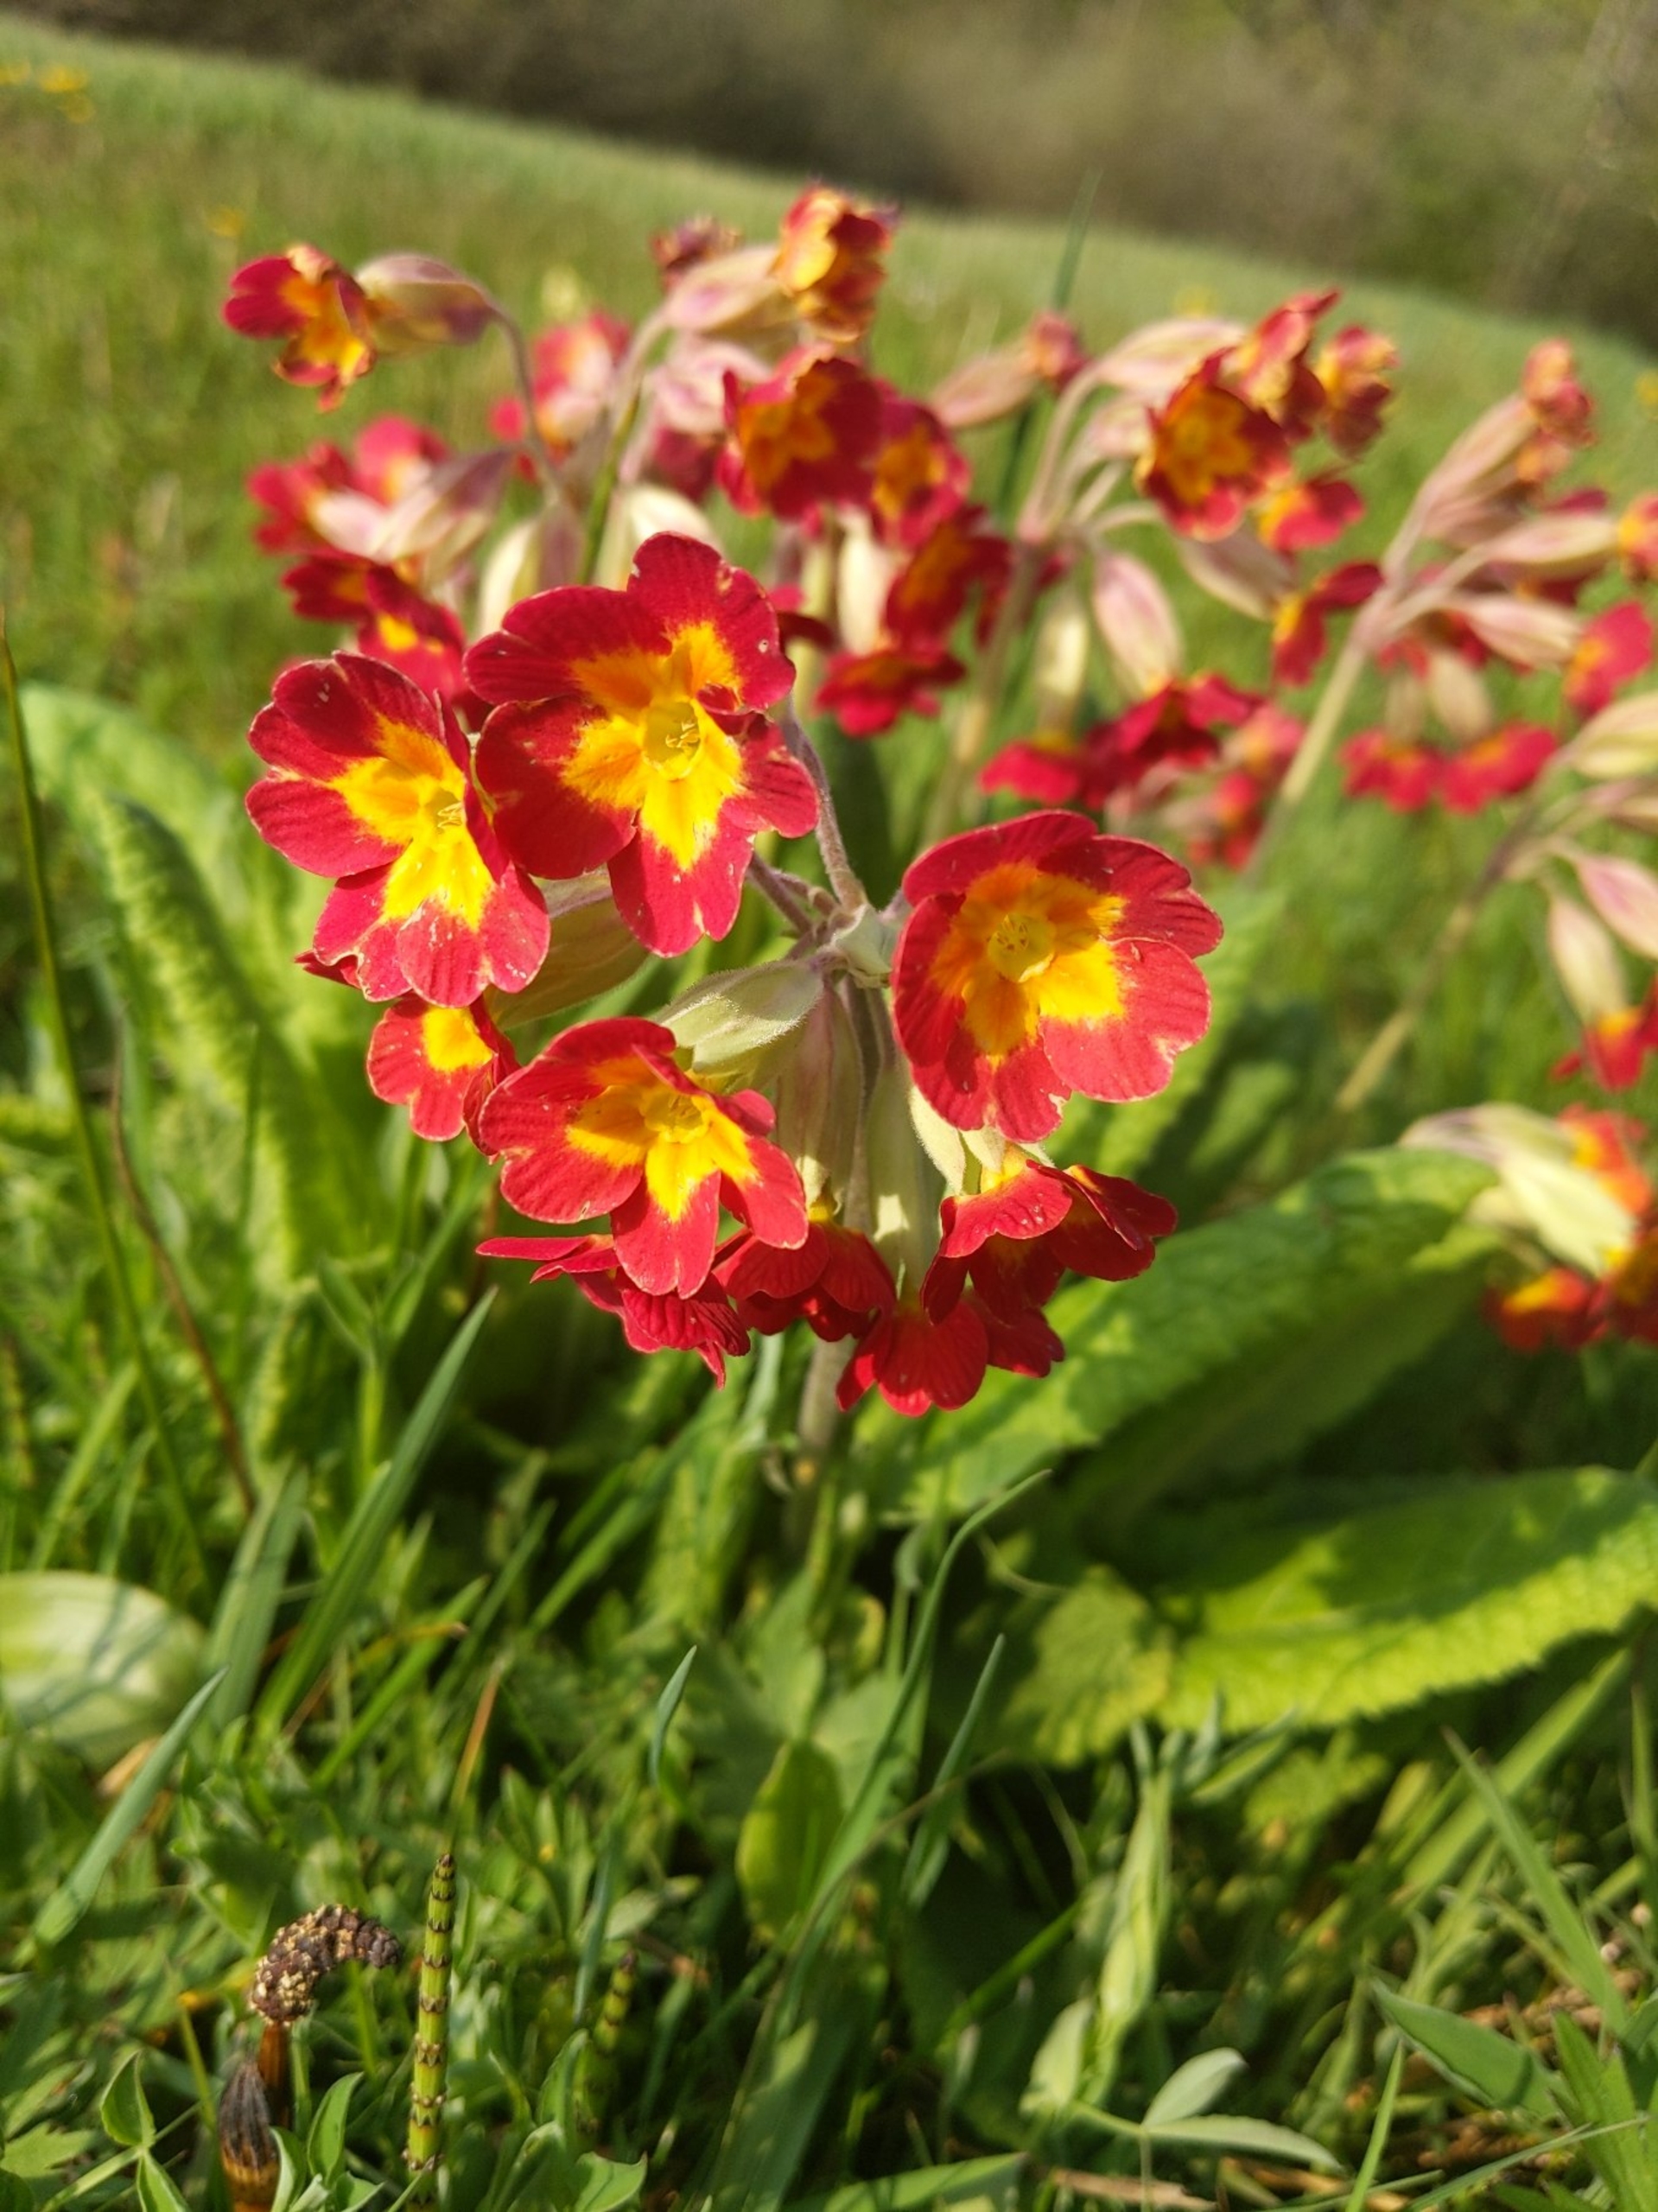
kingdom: Plantae
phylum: Tracheophyta
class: Magnoliopsida
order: Ericales
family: Primulaceae
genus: Primula
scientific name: Primula veris
